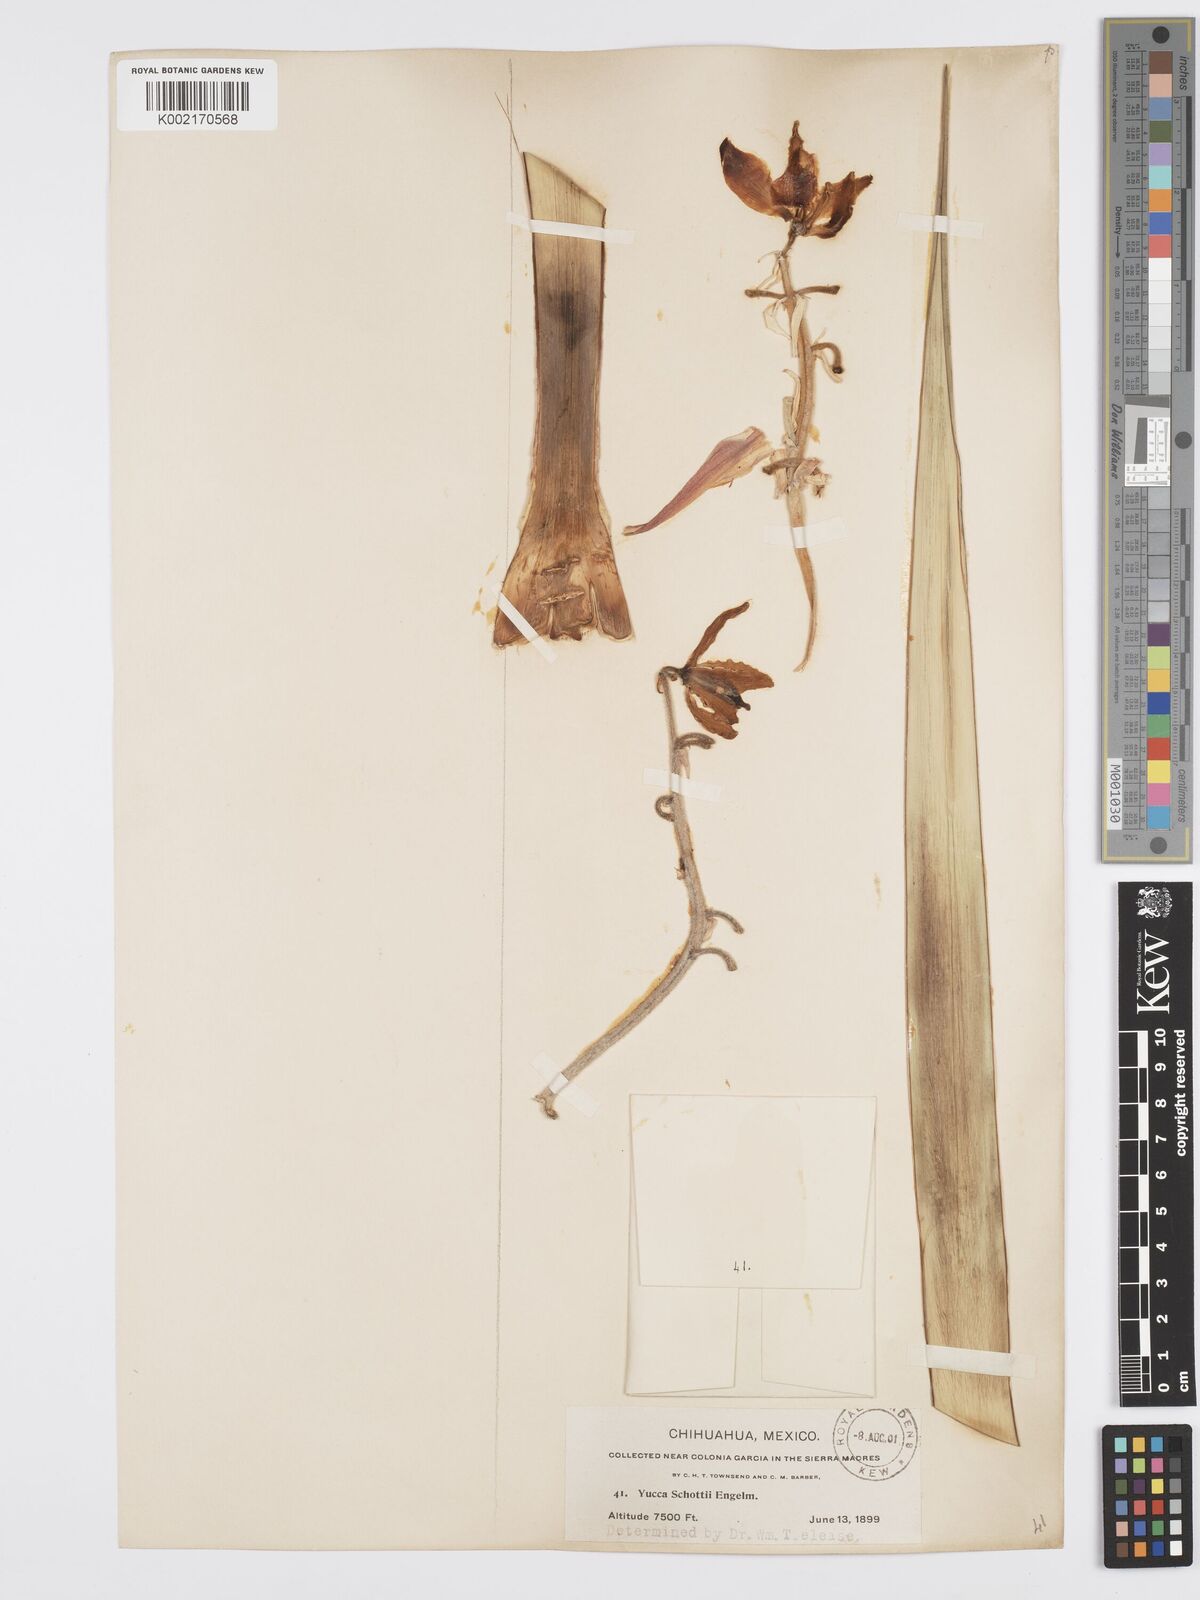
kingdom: Plantae
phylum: Tracheophyta
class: Liliopsida
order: Asparagales
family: Asparagaceae
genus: Yucca
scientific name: Yucca schottii
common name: Hoary yucca
